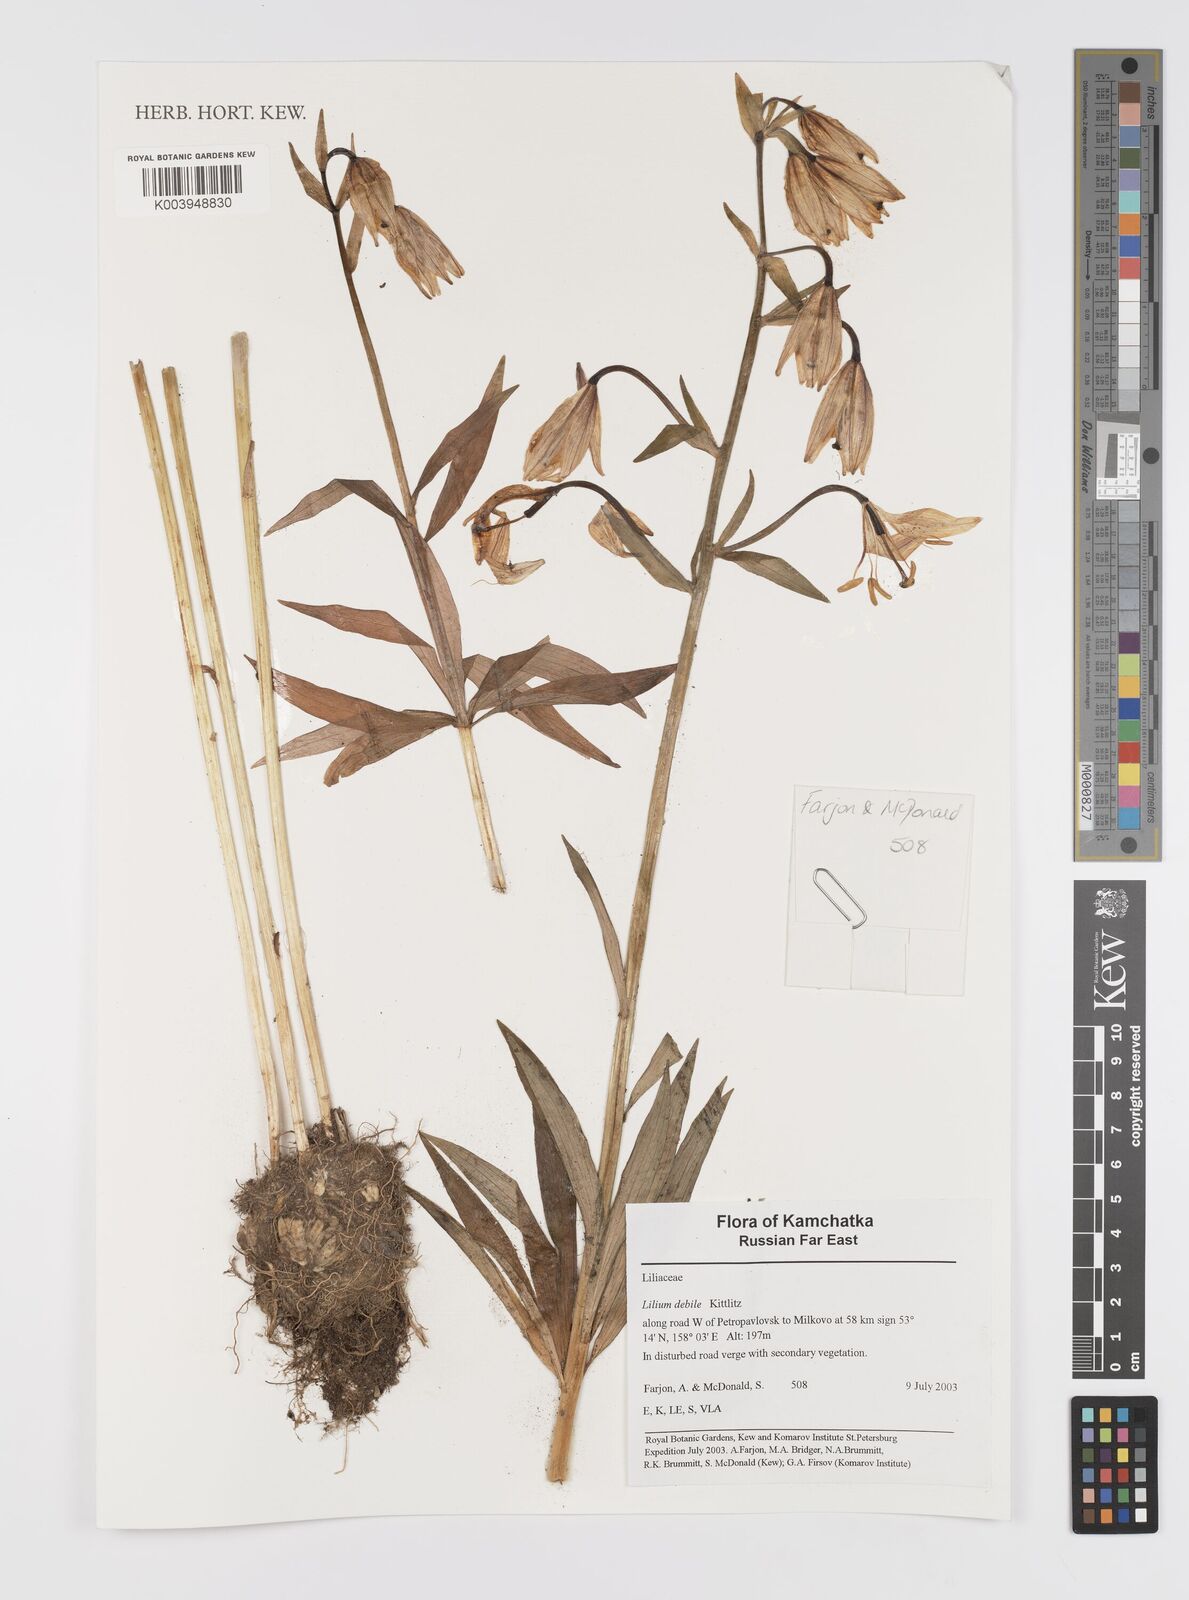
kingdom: Plantae
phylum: Tracheophyta
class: Liliopsida
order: Liliales
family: Liliaceae
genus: Lilium
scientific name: Lilium debile
